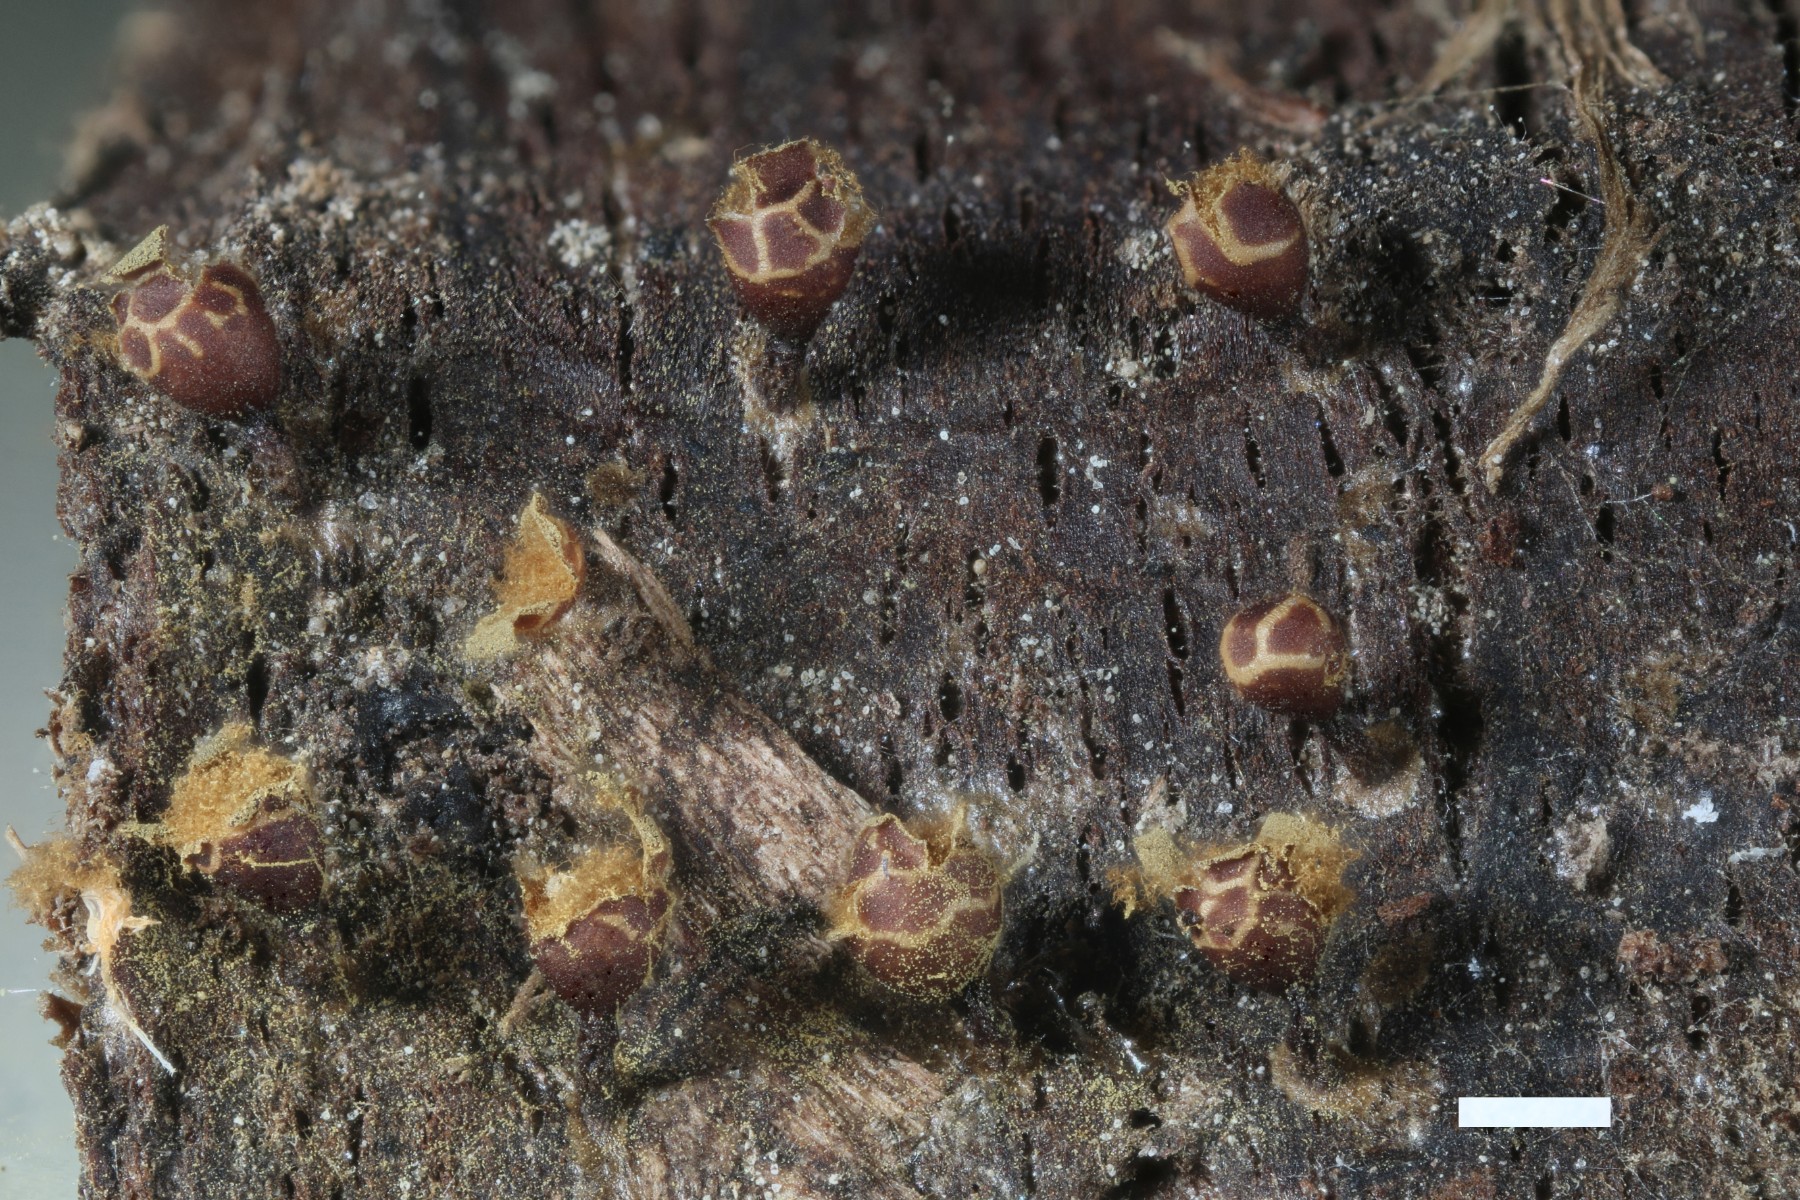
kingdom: Protozoa
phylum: Mycetozoa
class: Myxomycetes
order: Trichiales
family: Trichiaceae
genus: Trichia
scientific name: Trichia botrytis
